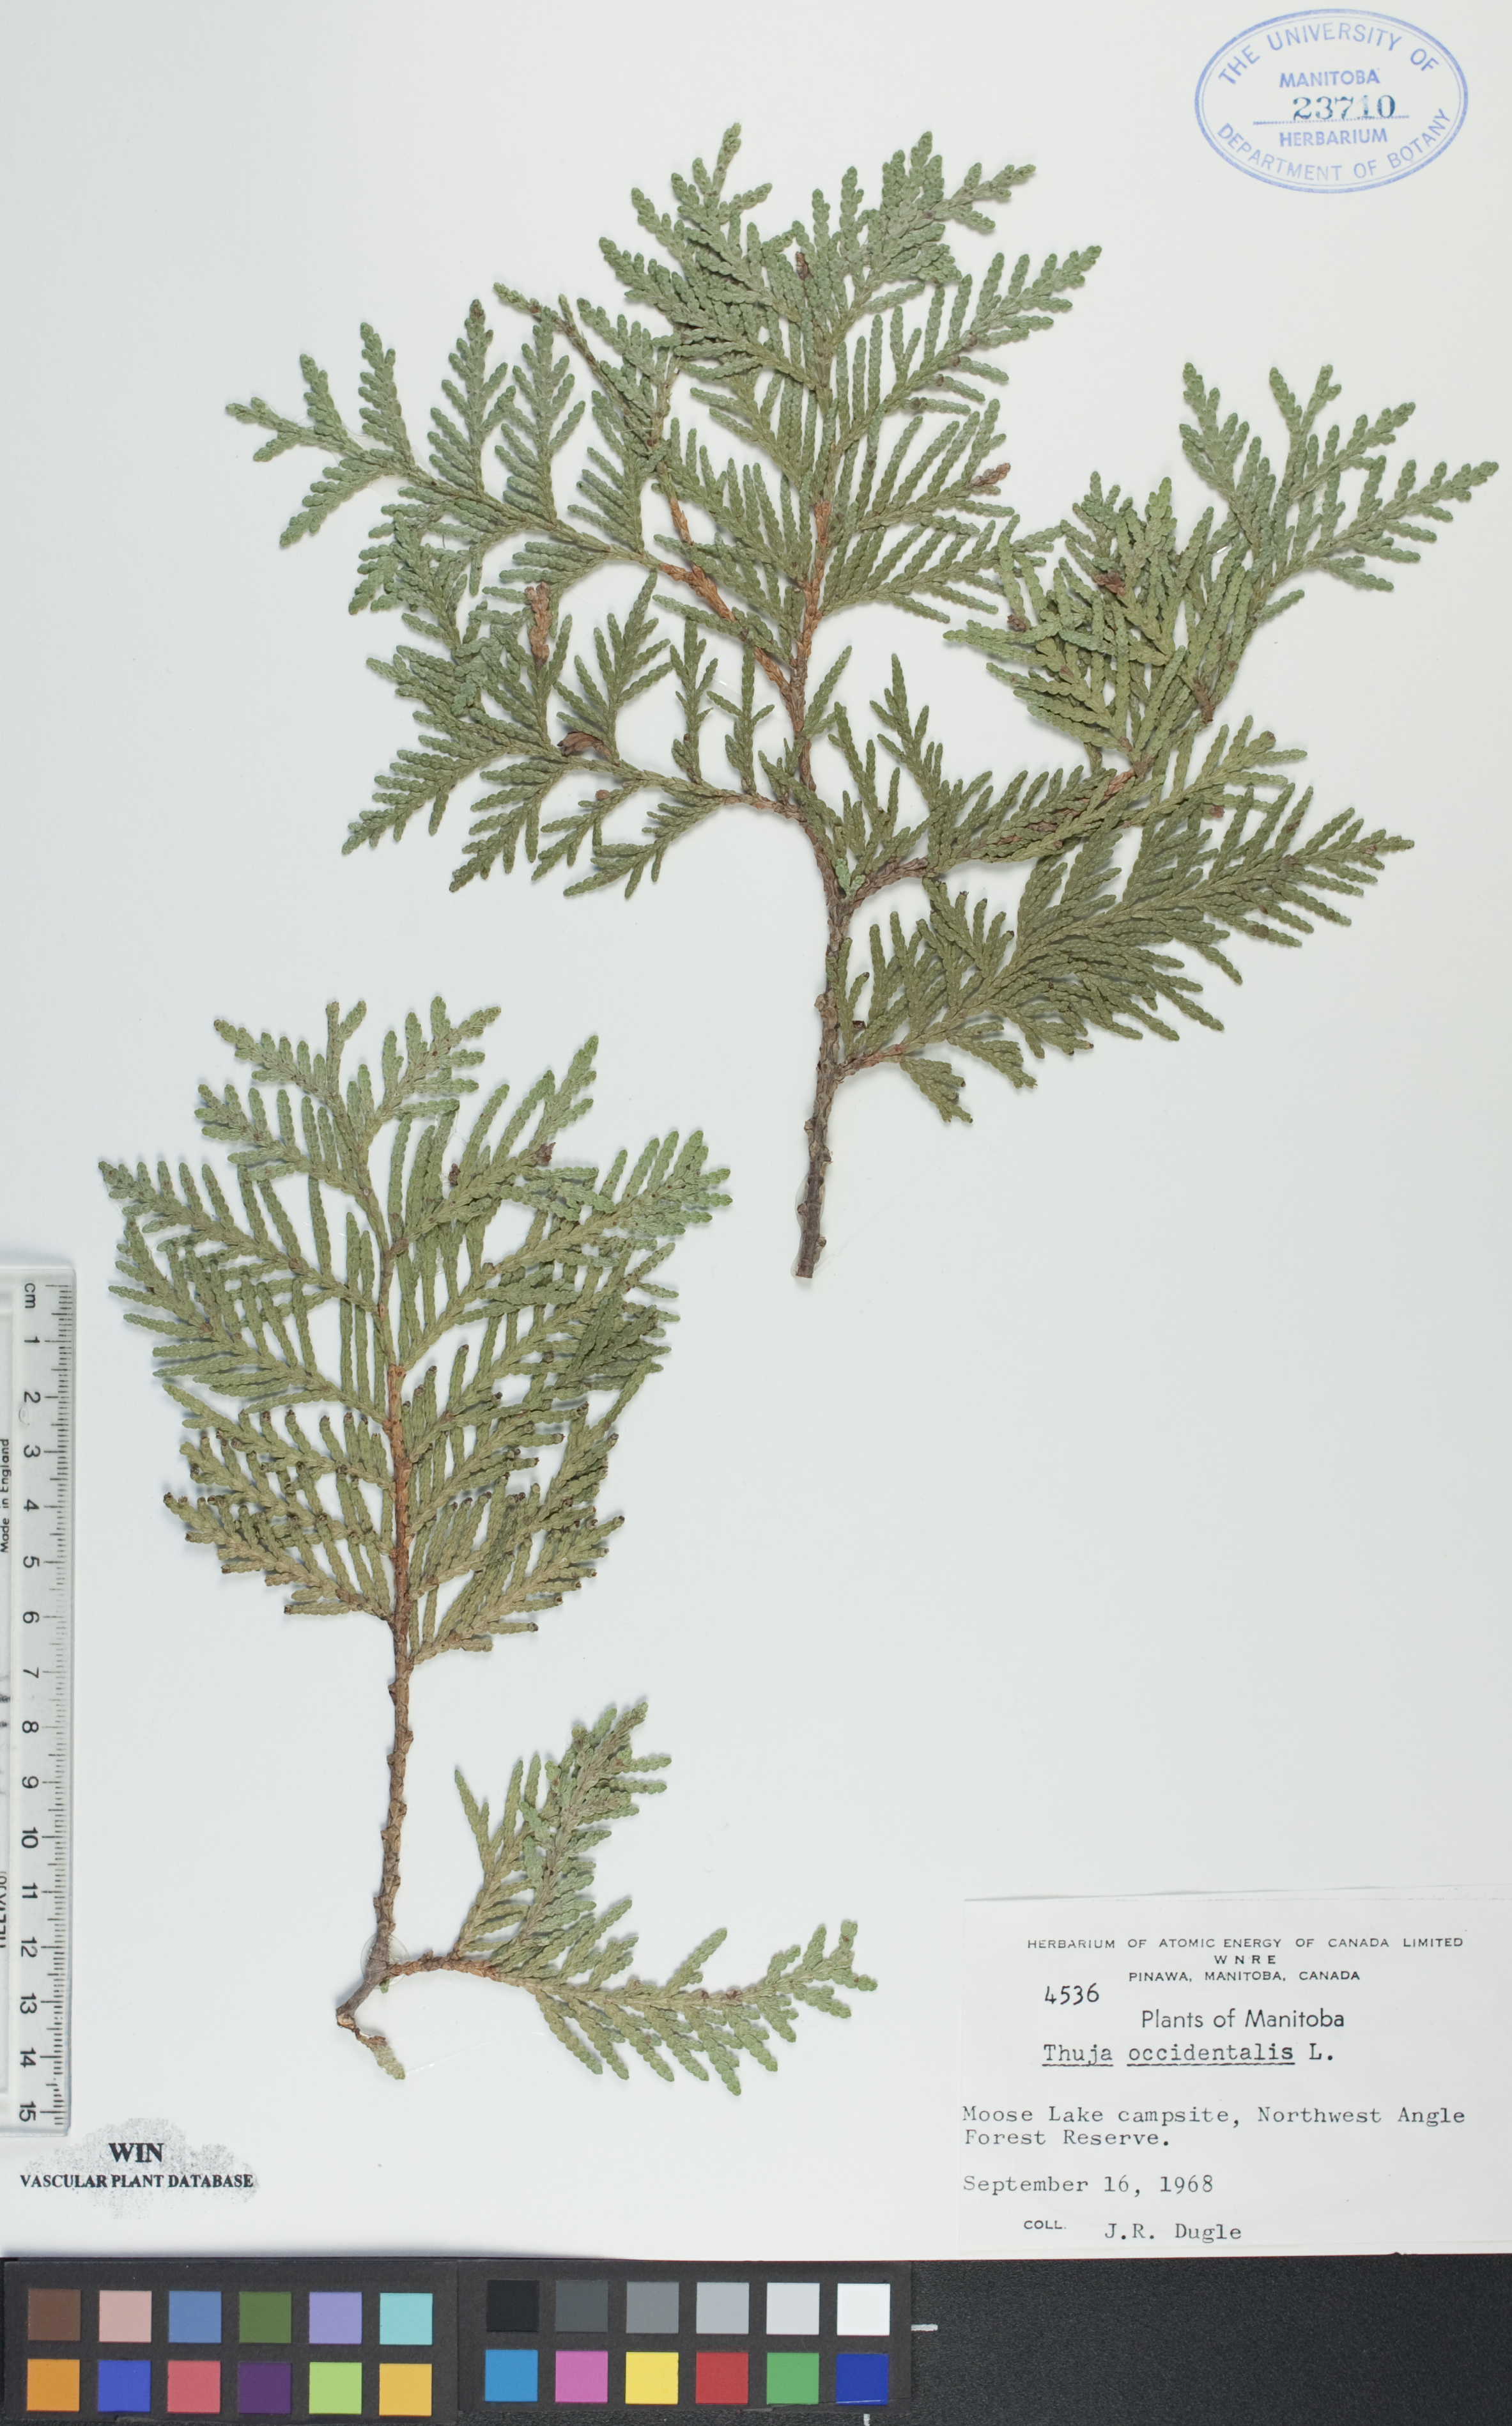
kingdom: Plantae
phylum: Tracheophyta
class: Pinopsida
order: Pinales
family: Cupressaceae
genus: Thuja
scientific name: Thuja occidentalis
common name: Northern white-cedar
